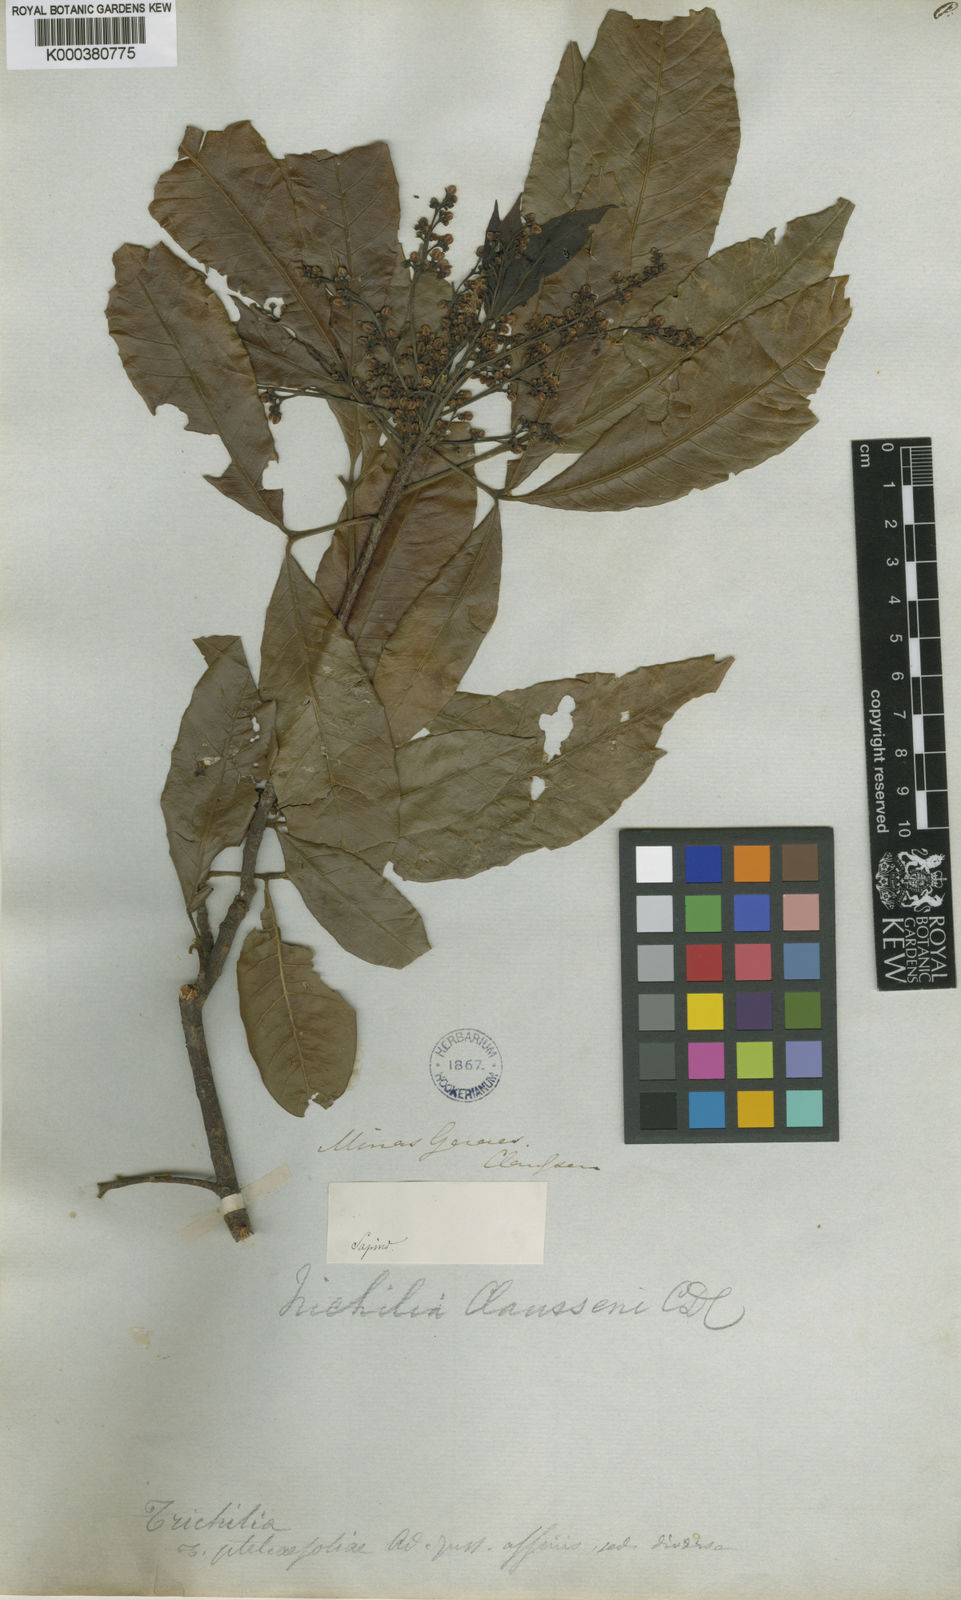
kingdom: Plantae
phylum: Tracheophyta
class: Magnoliopsida
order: Sapindales
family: Meliaceae
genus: Trichilia
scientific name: Trichilia claussenii
